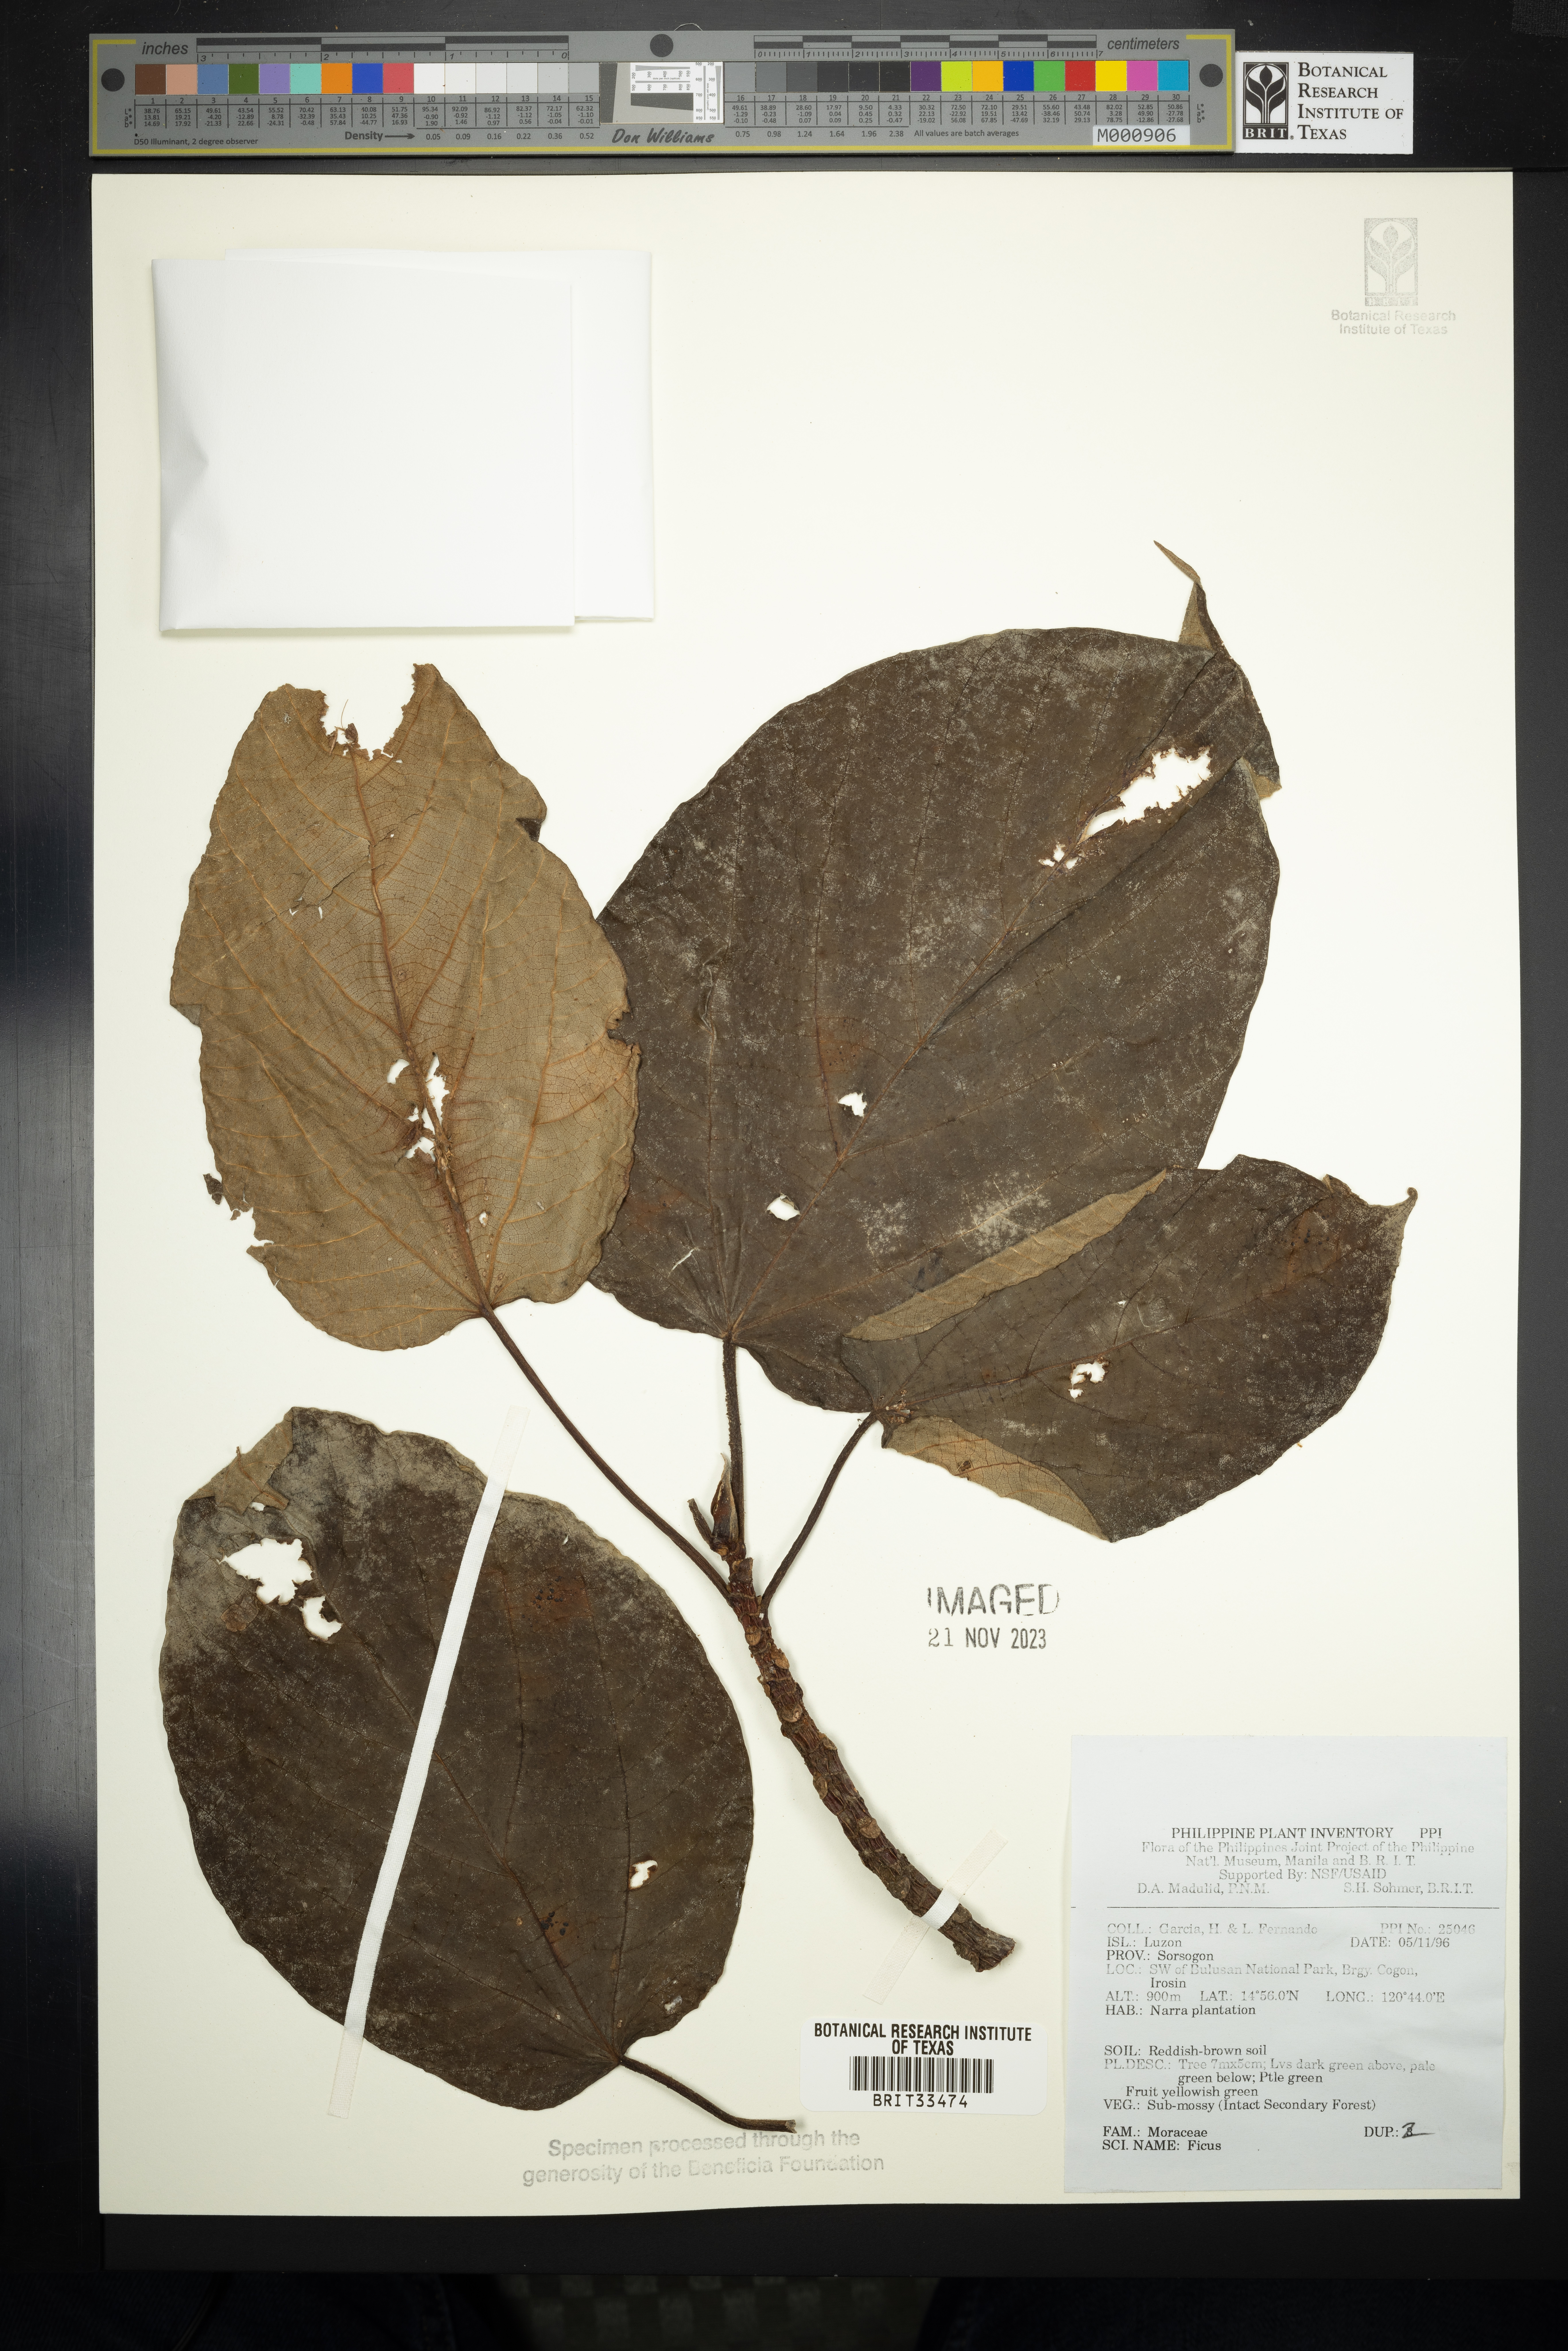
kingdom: Plantae
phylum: Tracheophyta
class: Magnoliopsida
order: Rosales
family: Moraceae
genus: Ficus
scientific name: Ficus
